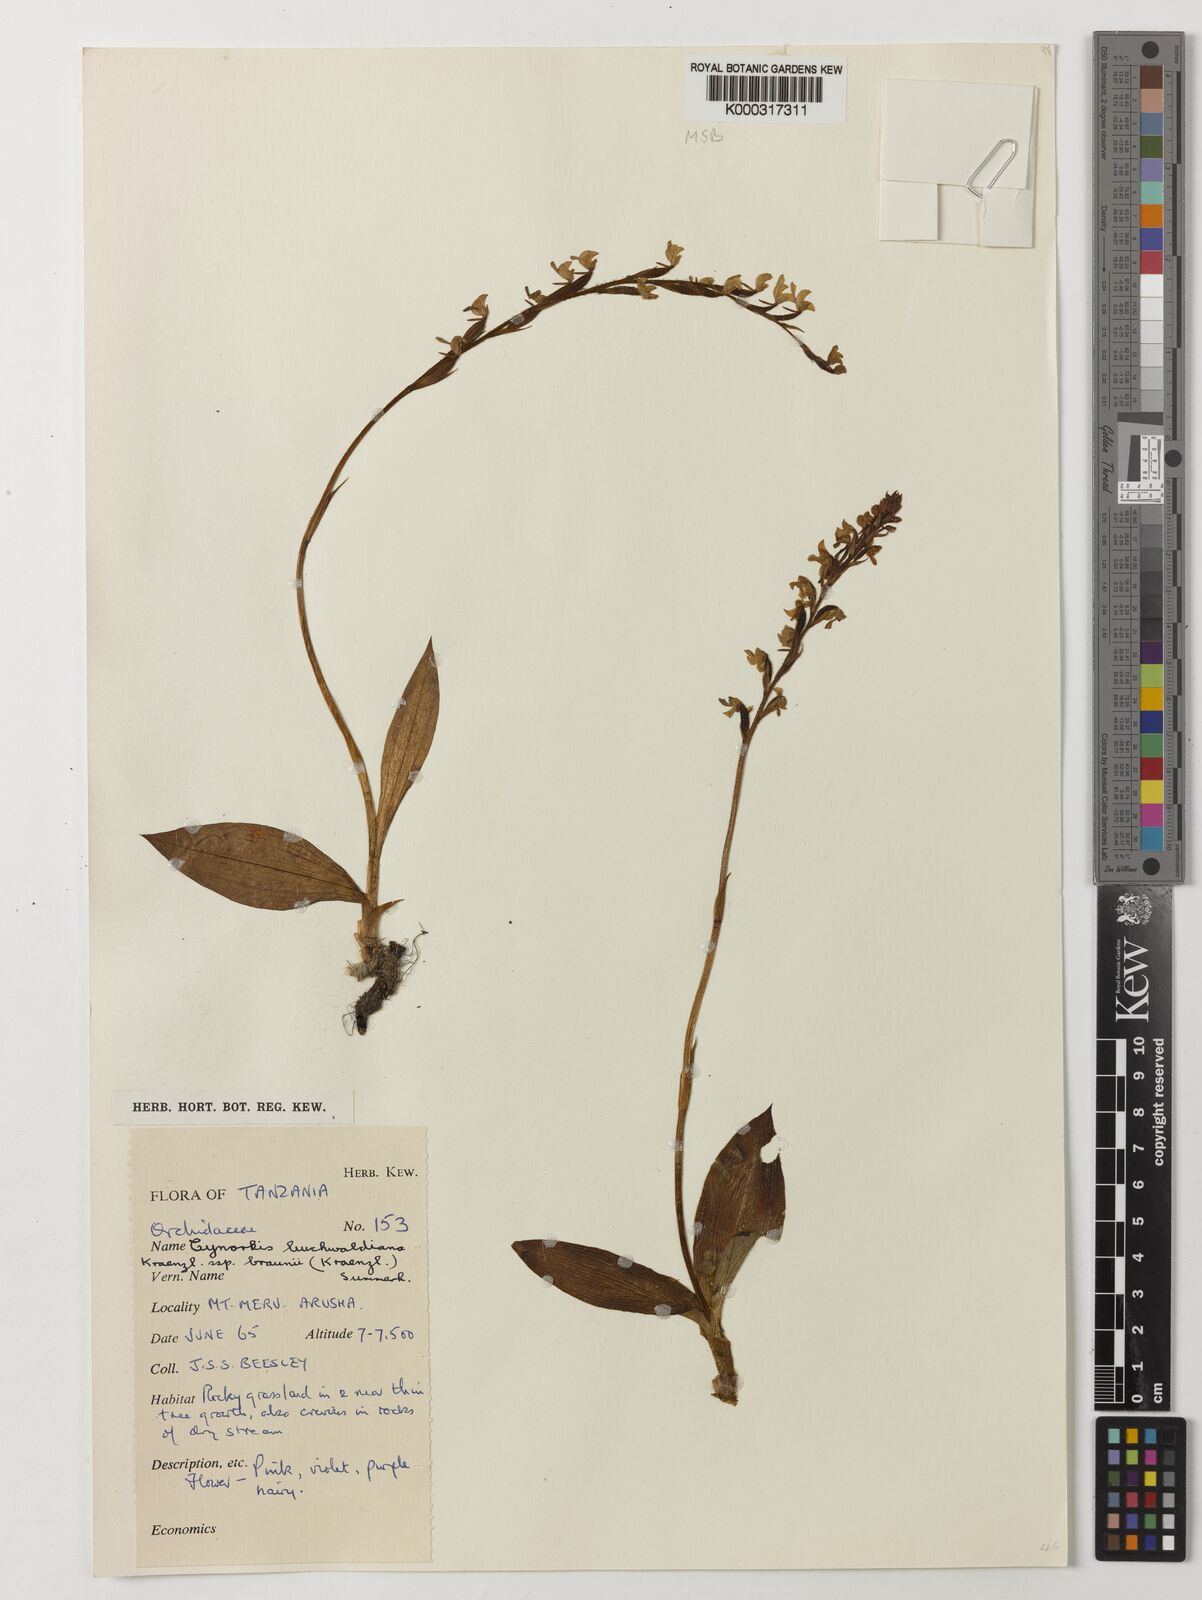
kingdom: Plantae
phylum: Tracheophyta
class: Liliopsida
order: Asparagales
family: Orchidaceae
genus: Cynorkis
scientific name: Cynorkis buchwaldiana
